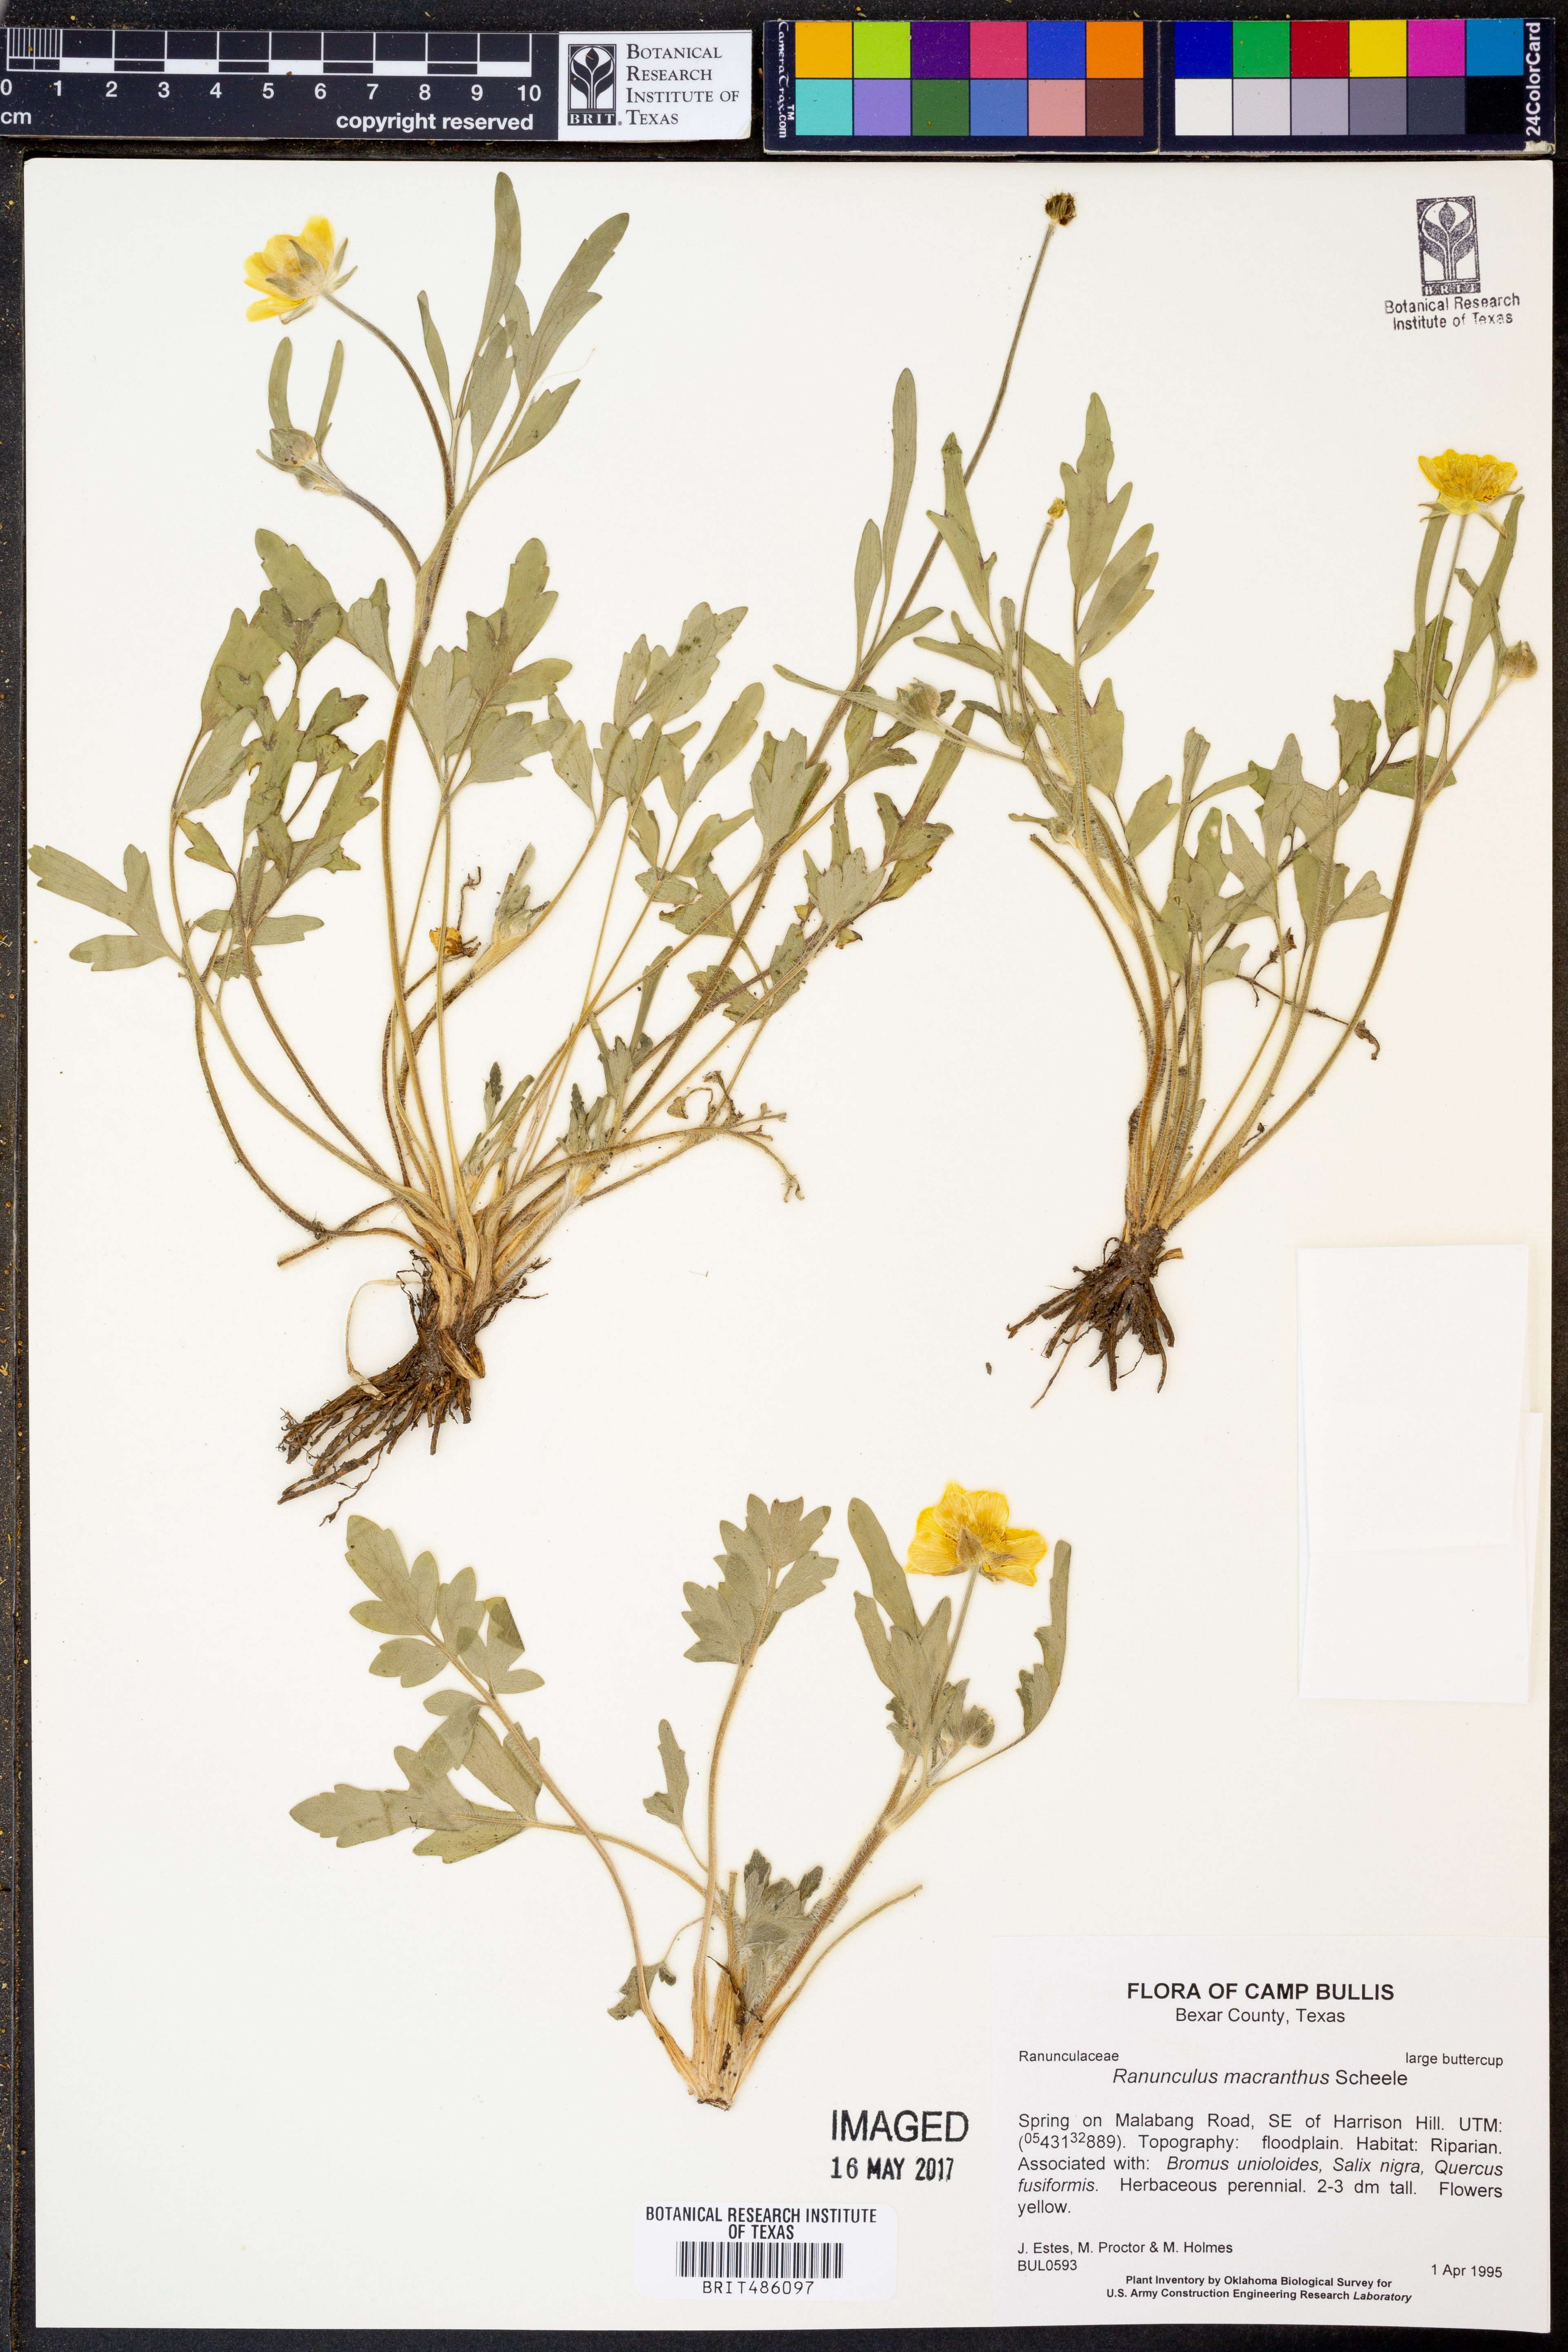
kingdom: Plantae
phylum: Tracheophyta
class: Magnoliopsida
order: Ranunculales
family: Ranunculaceae
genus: Ranunculus
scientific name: Ranunculus macranthus
